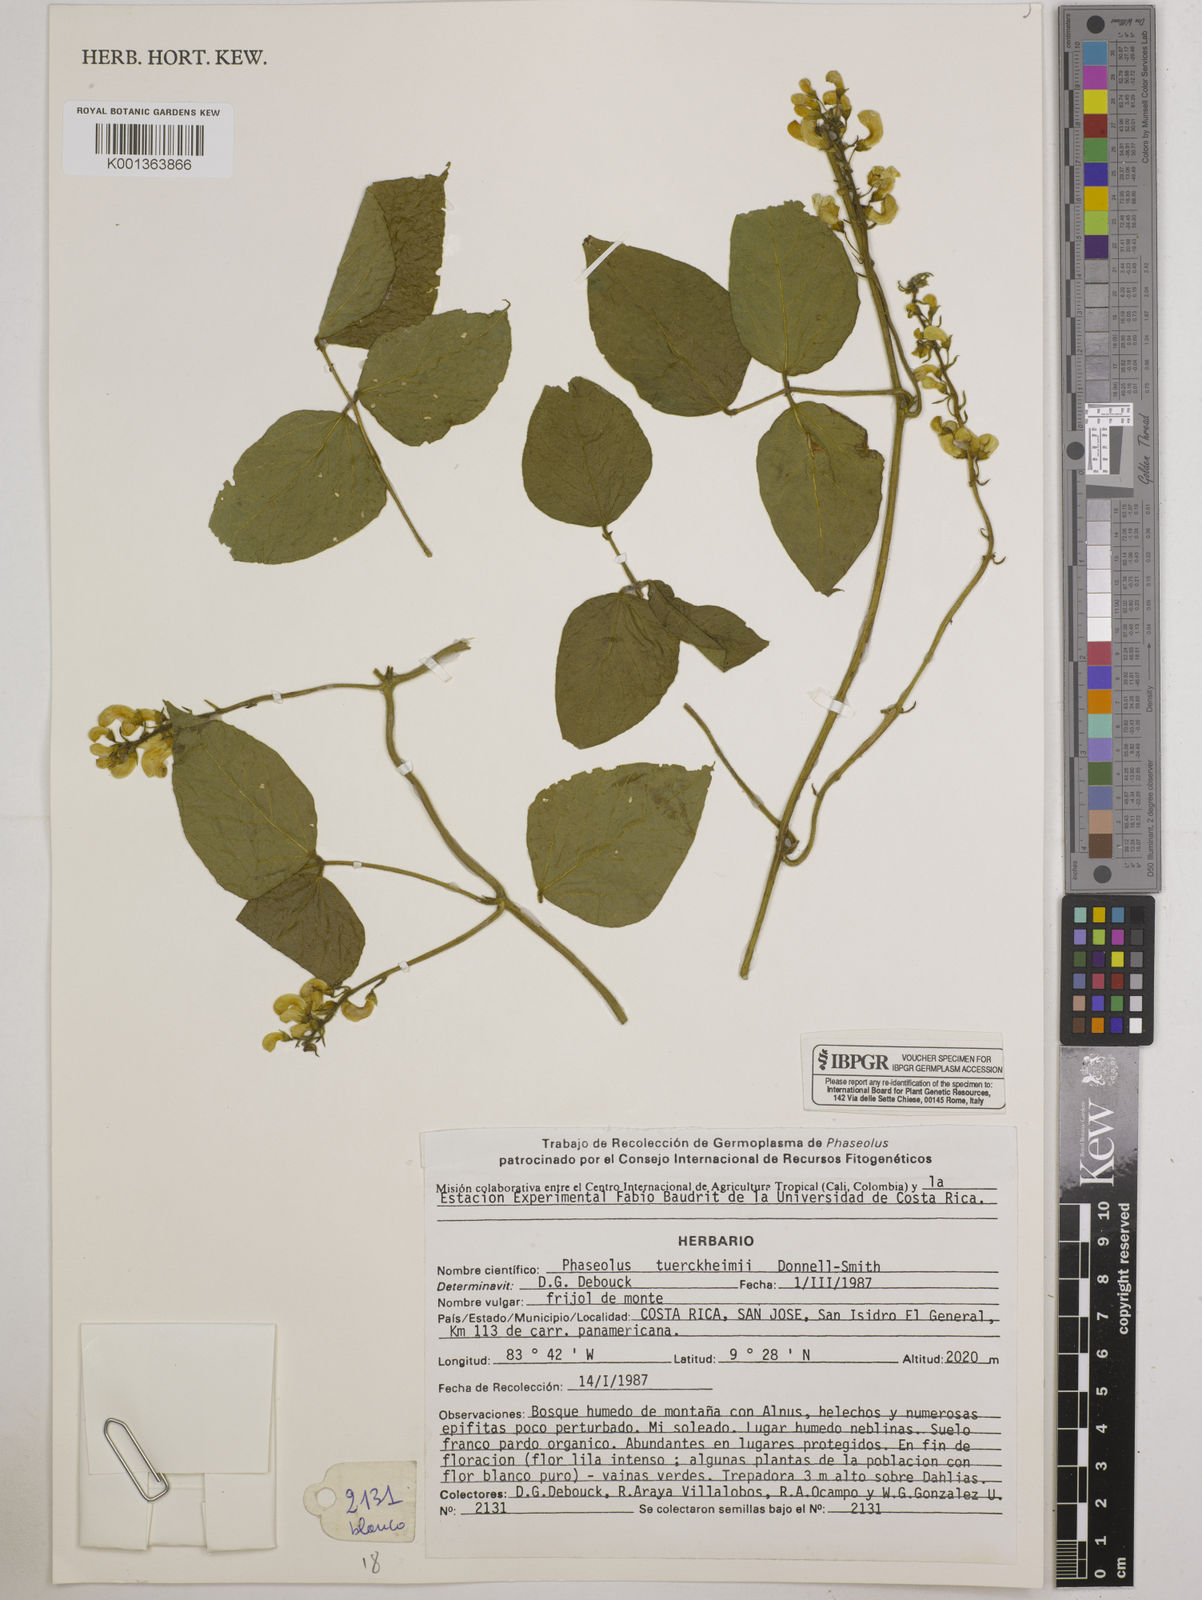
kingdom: Plantae
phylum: Tracheophyta
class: Magnoliopsida
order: Fabales
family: Fabaceae
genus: Phaseolus
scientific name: Phaseolus tuerckheimii
